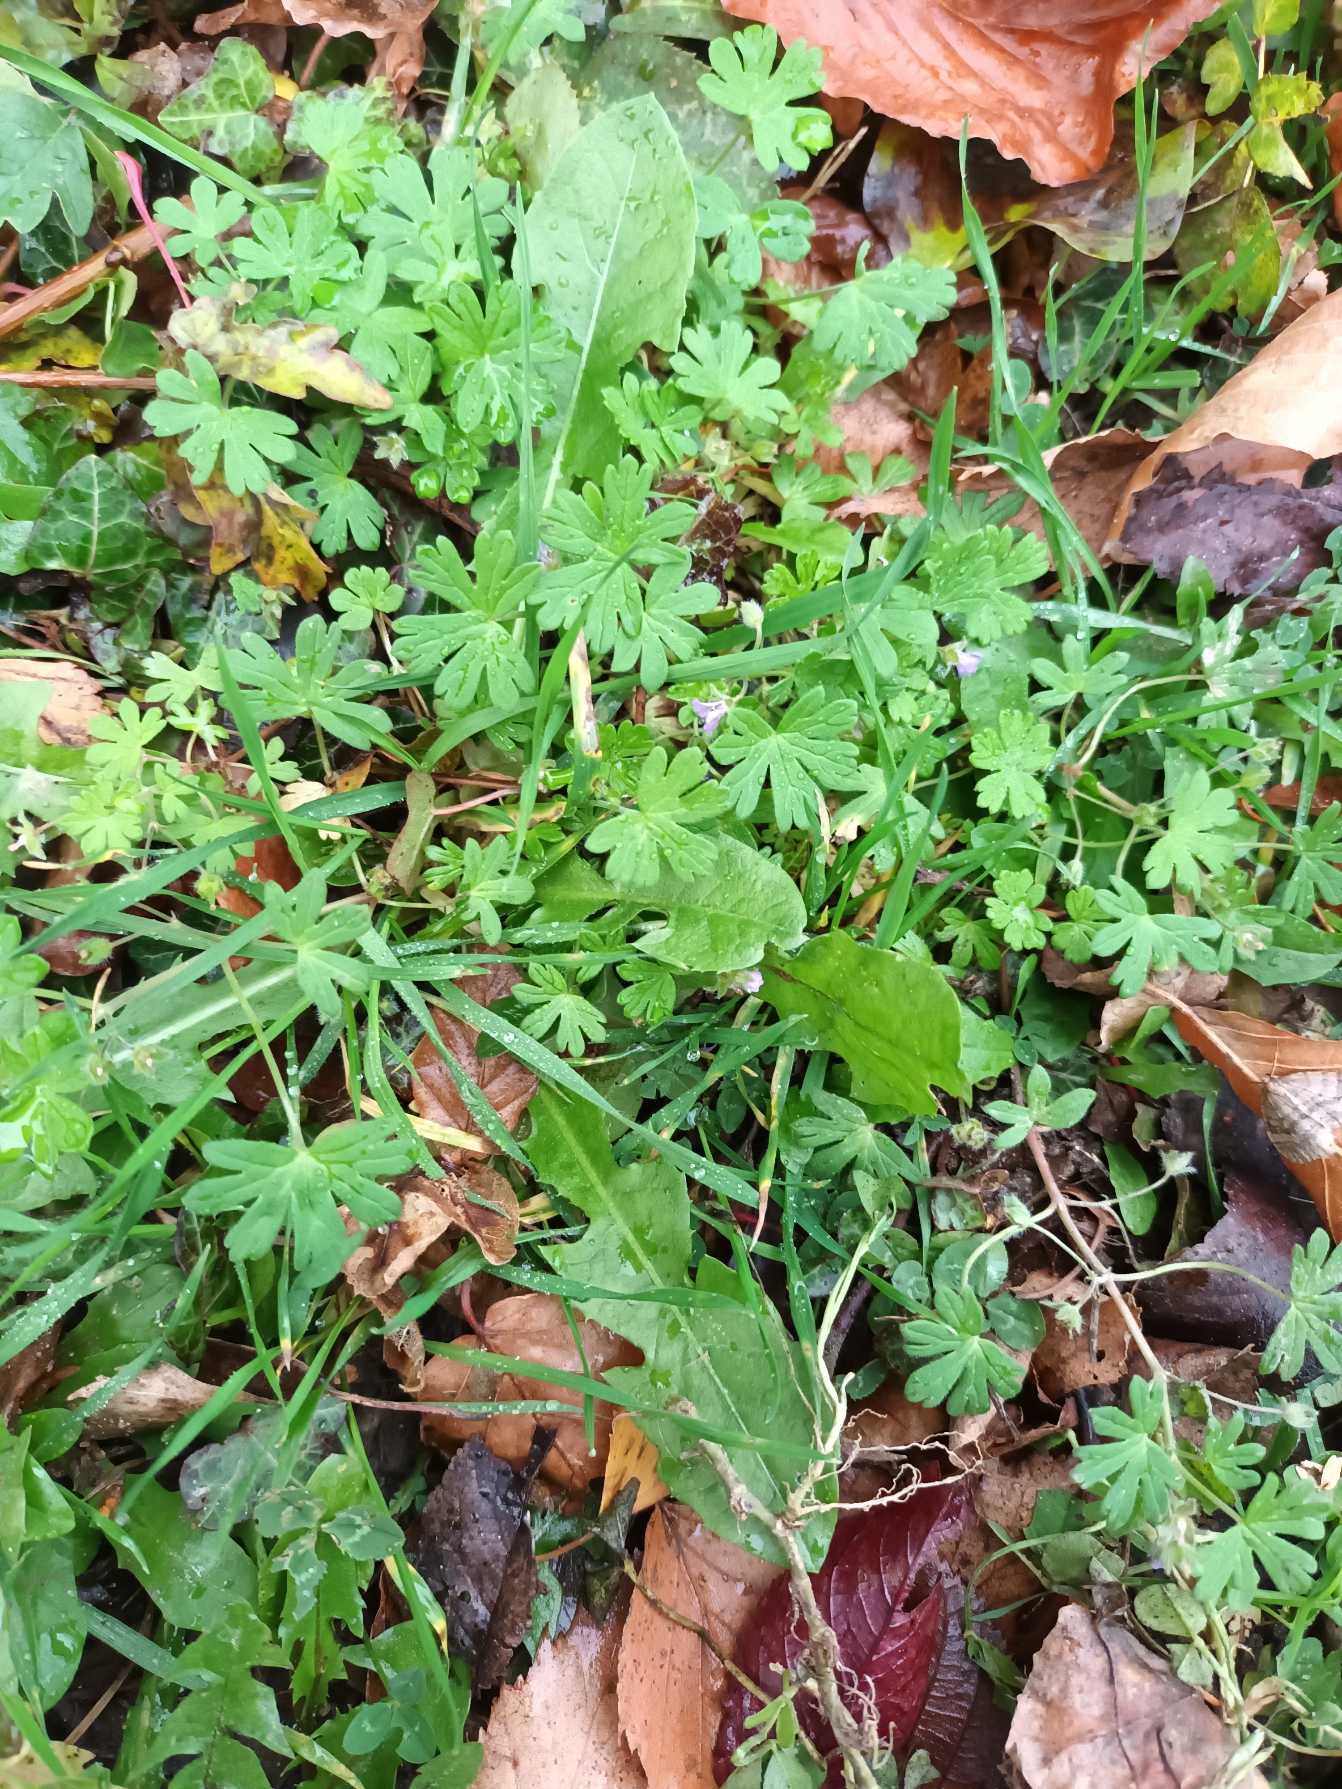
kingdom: Plantae
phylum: Tracheophyta
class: Magnoliopsida
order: Geraniales
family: Geraniaceae
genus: Geranium
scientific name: Geranium pusillum
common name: Liden storkenæb
